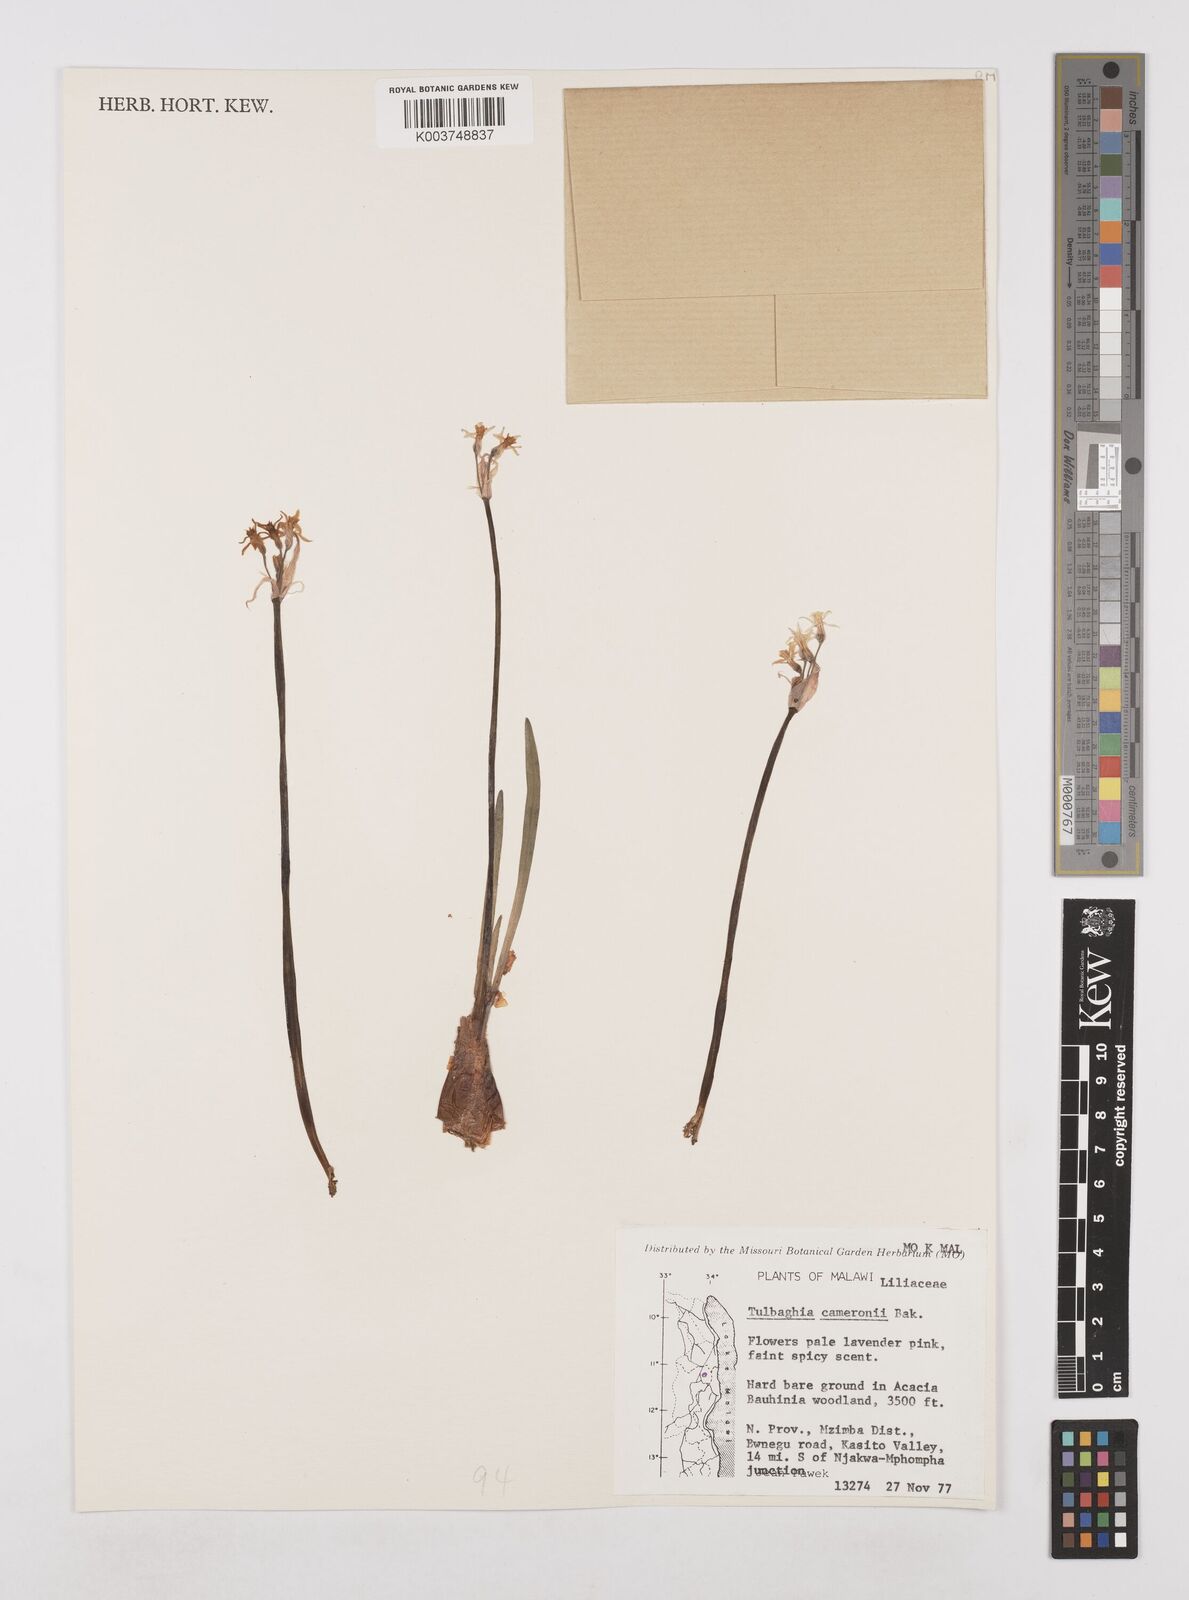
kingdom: Plantae
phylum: Tracheophyta
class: Liliopsida
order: Asparagales
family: Amaryllidaceae
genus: Tulbaghia
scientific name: Tulbaghia cameronii
